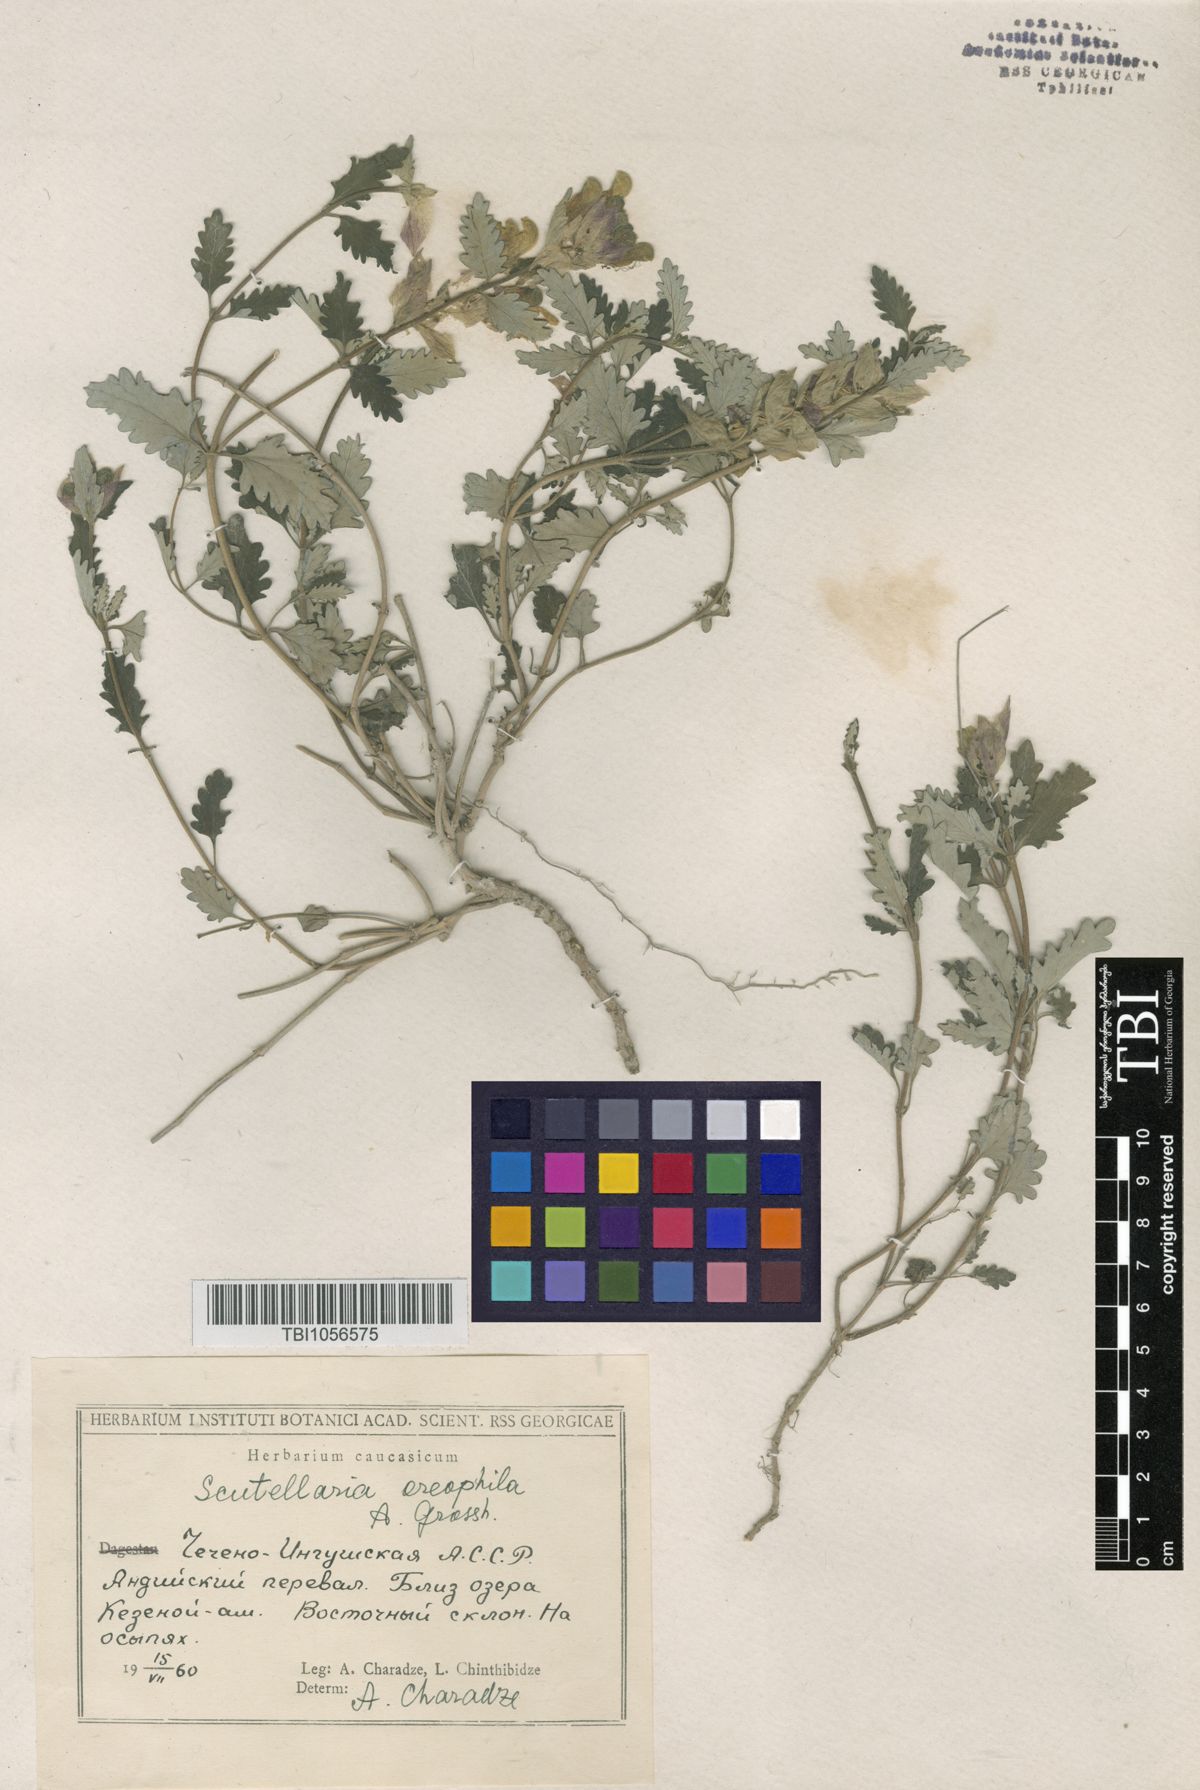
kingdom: Plantae
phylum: Tracheophyta
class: Magnoliopsida
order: Lamiales
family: Lamiaceae
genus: Scutellaria
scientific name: Scutellaria oreophila
